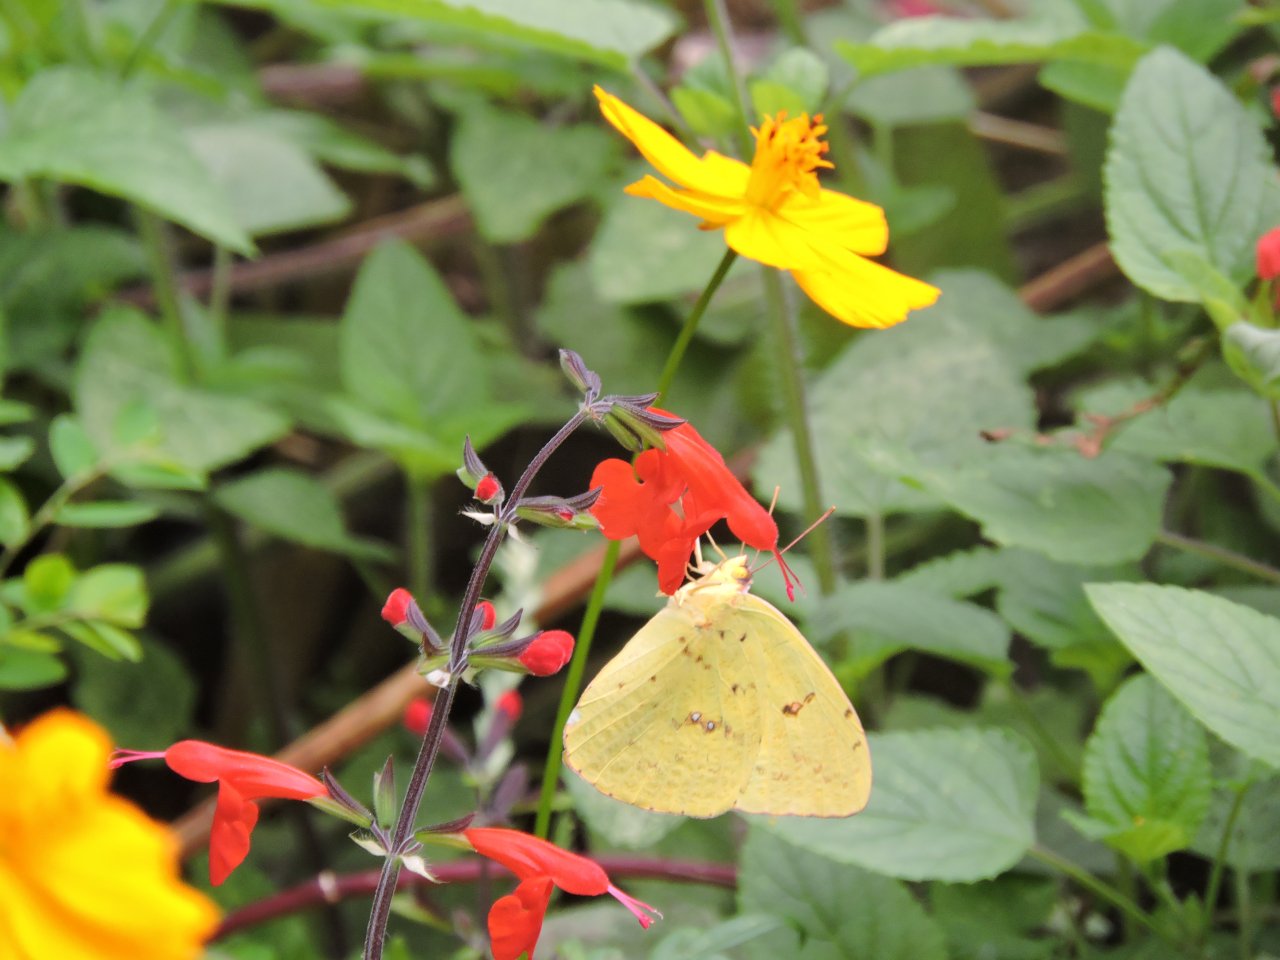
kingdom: Animalia
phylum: Arthropoda
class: Insecta
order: Lepidoptera
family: Pieridae
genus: Phoebis
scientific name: Phoebis sennae
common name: Cloudless Sulphur
